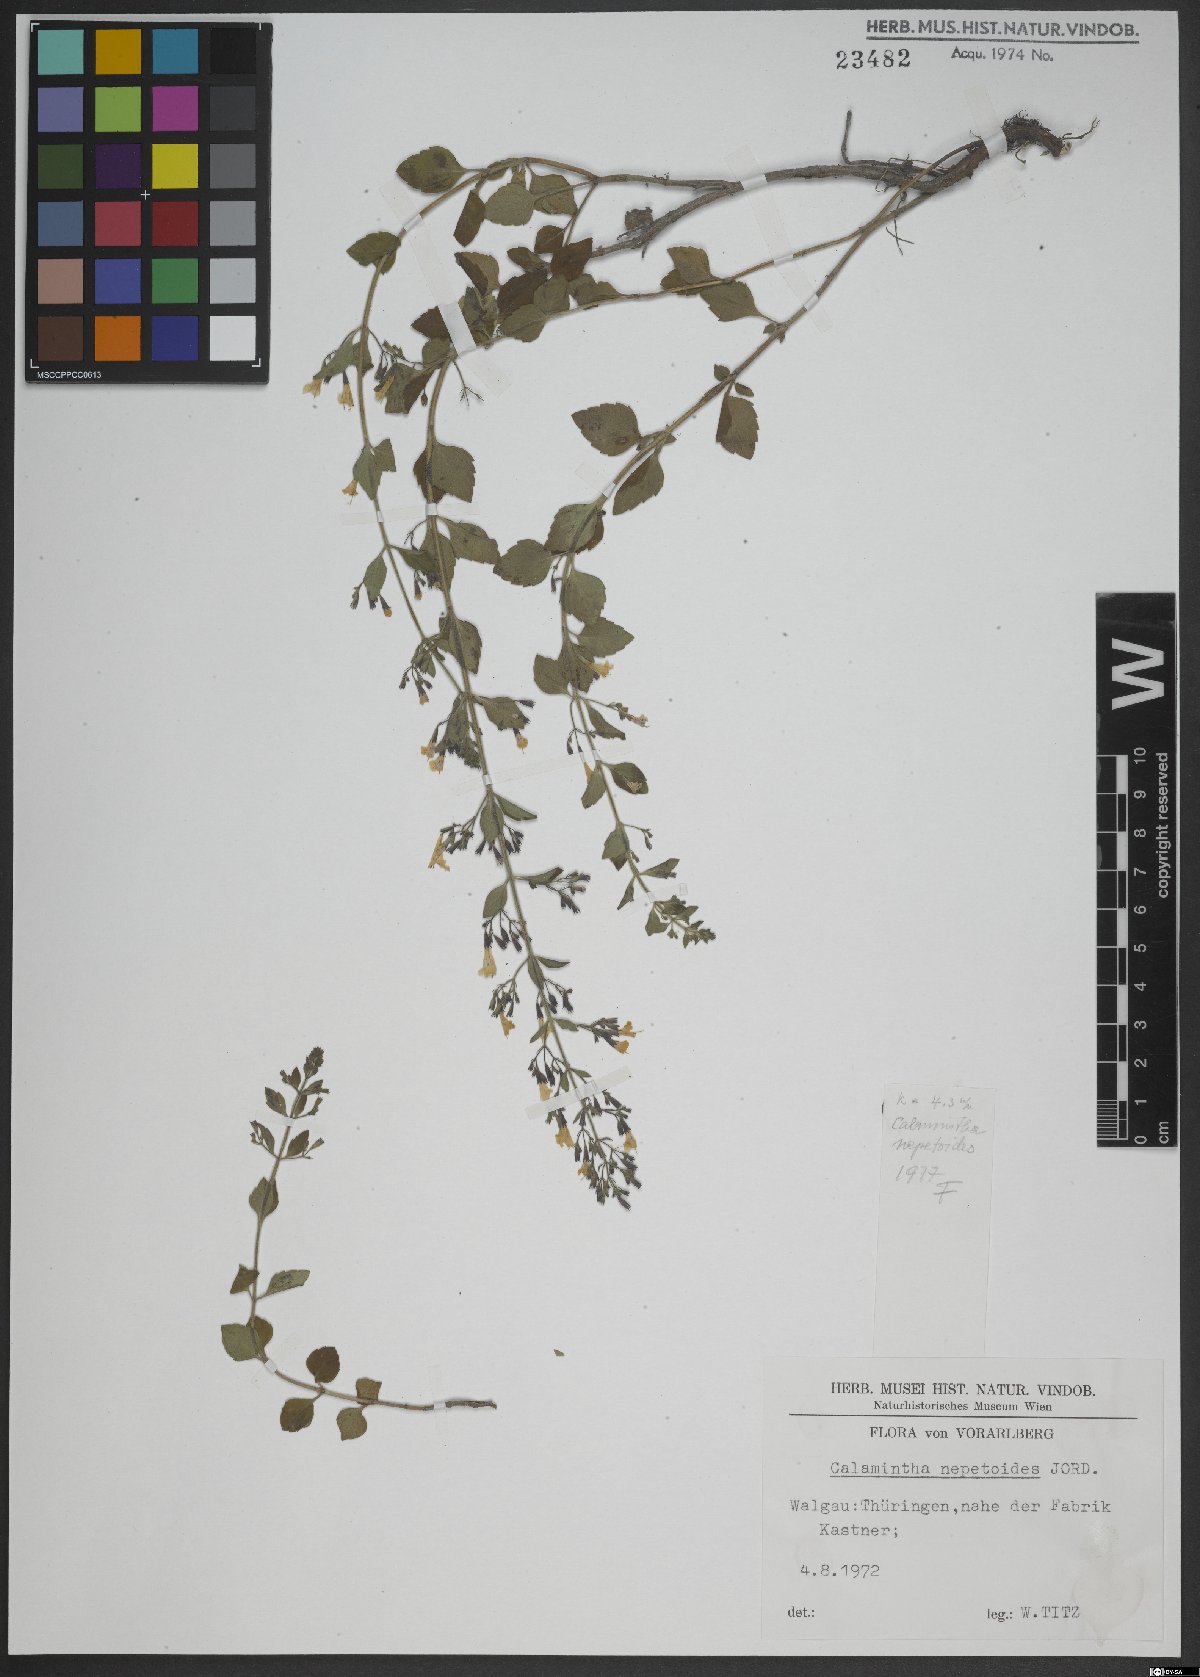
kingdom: Plantae
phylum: Tracheophyta
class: Magnoliopsida
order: Lamiales
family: Lamiaceae
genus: Clinopodium
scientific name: Clinopodium nepeta
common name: Lesser calamint
